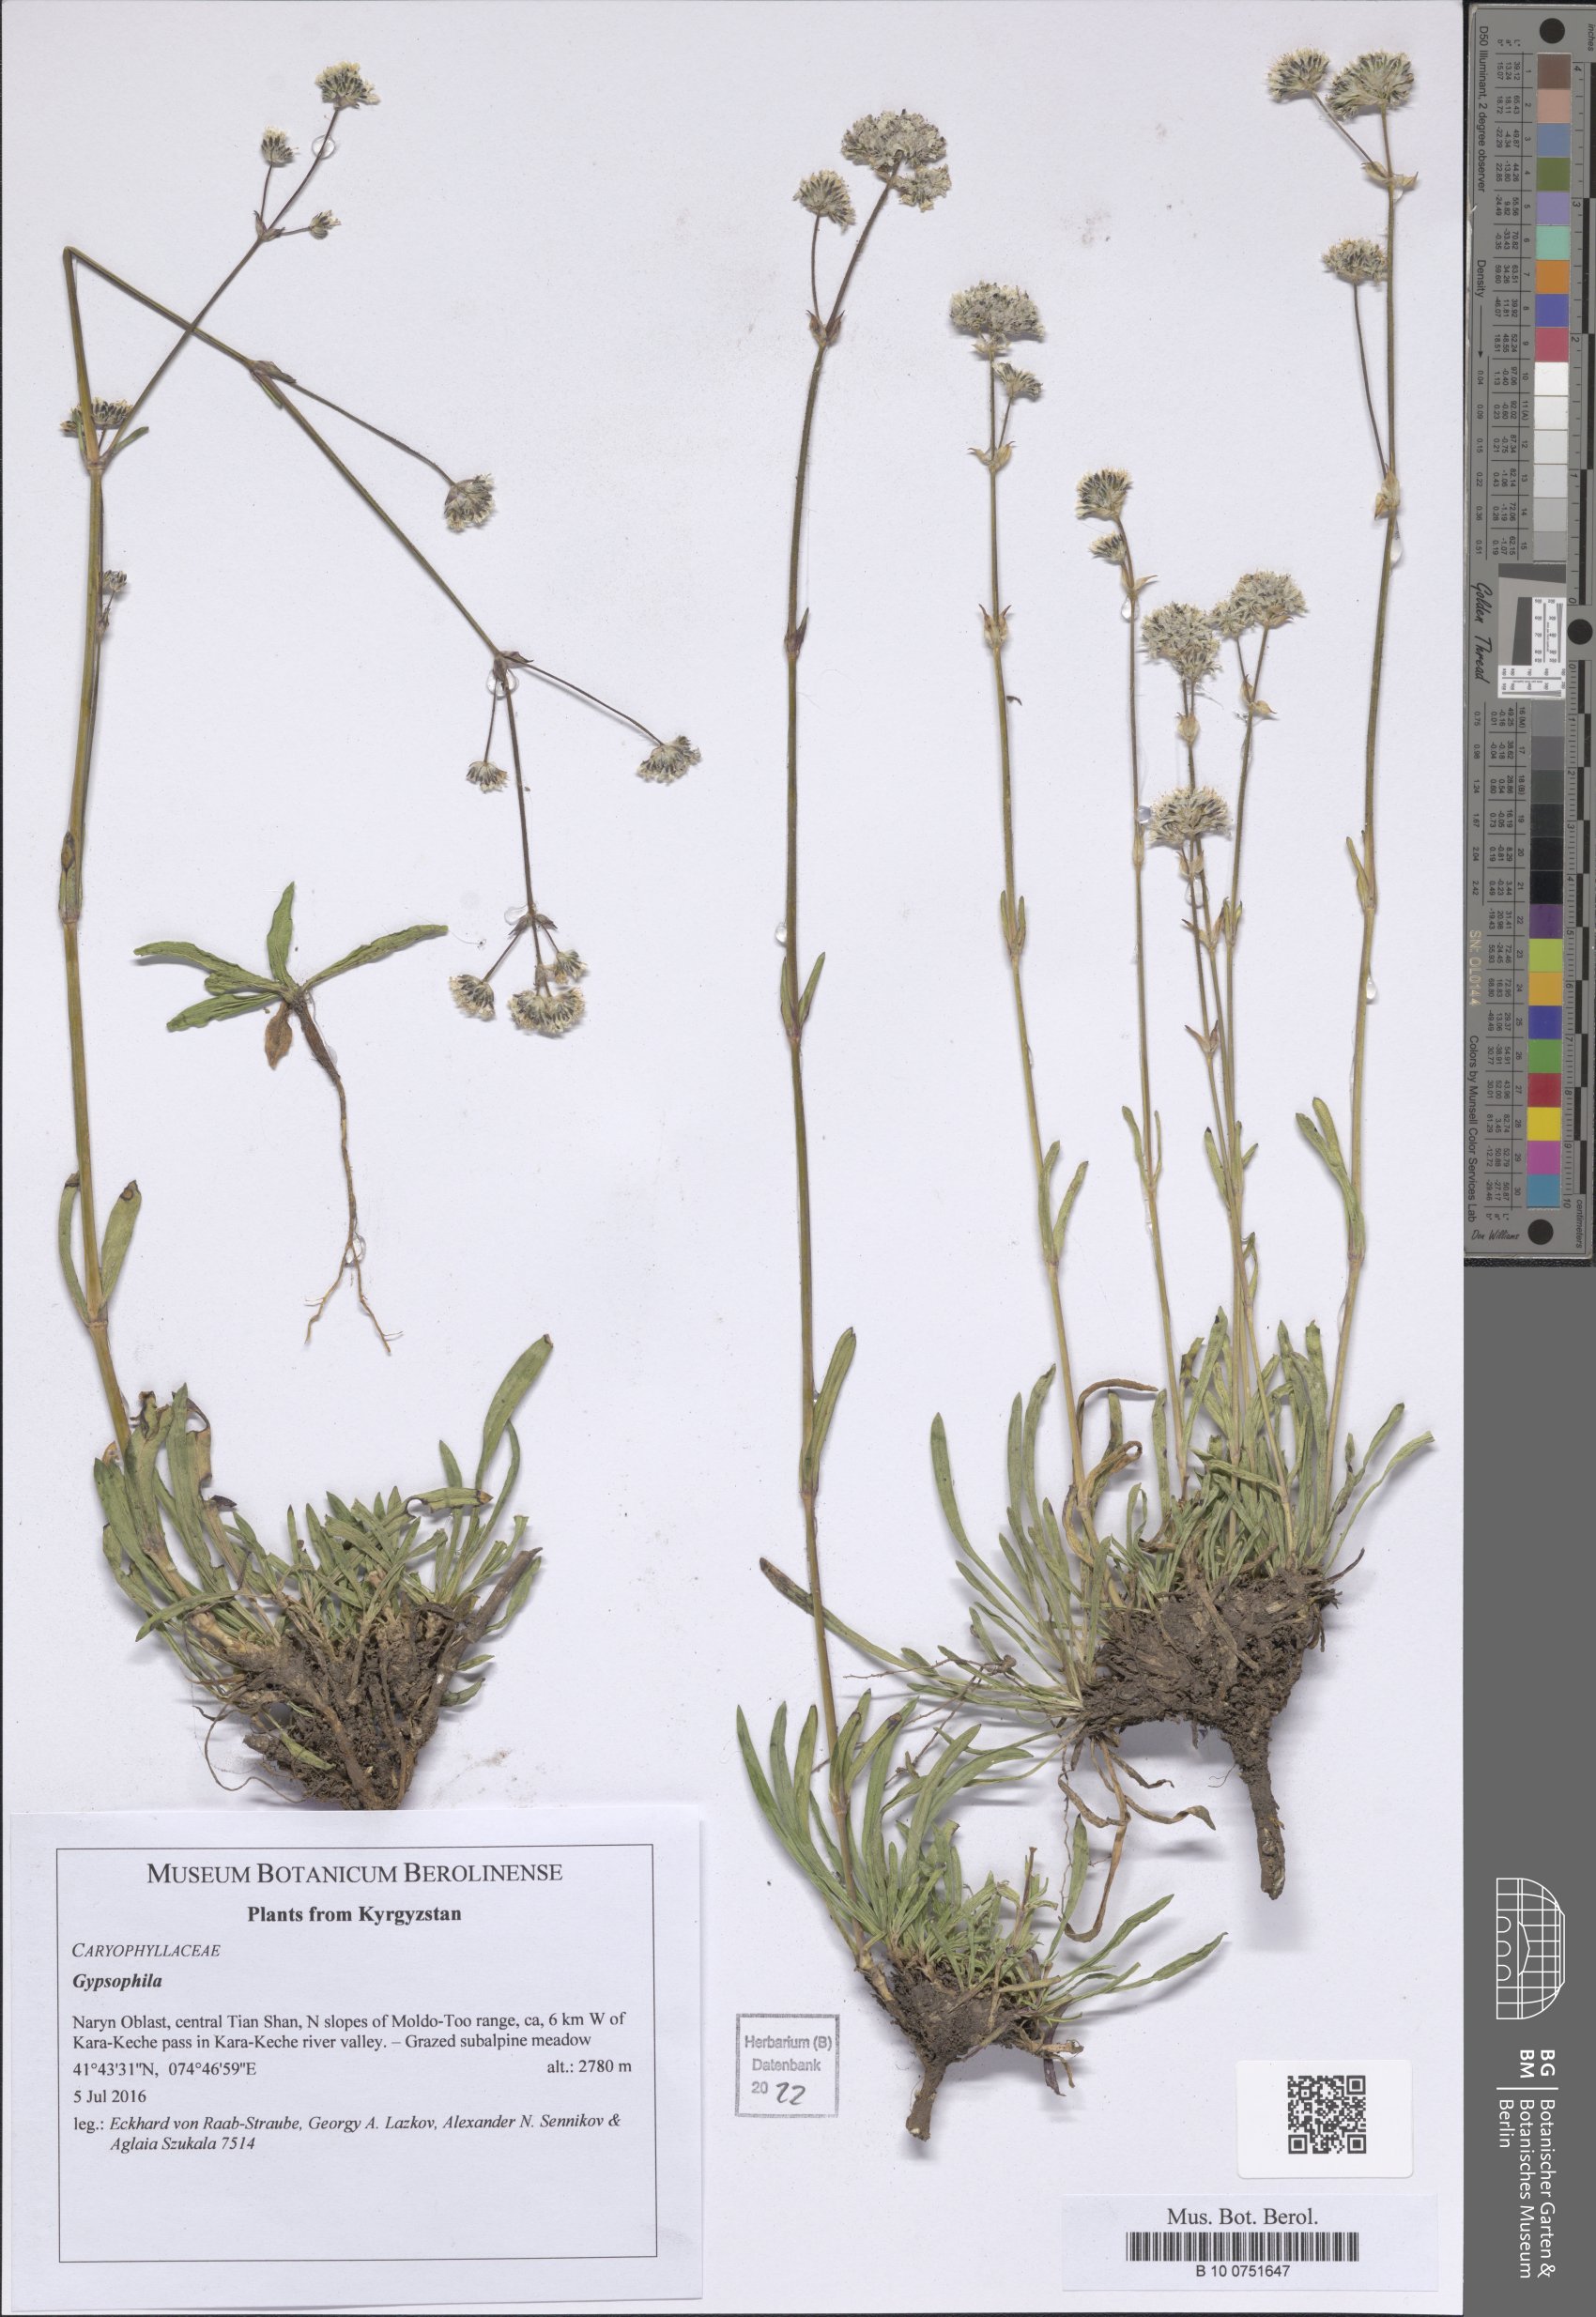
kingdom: Plantae
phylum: Tracheophyta
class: Magnoliopsida
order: Caryophyllales
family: Caryophyllaceae
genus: Gypsophila
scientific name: Gypsophila
